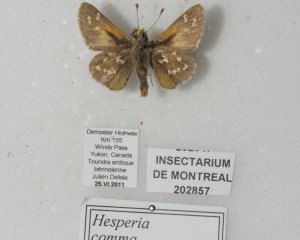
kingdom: Animalia
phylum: Arthropoda
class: Insecta
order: Lepidoptera
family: Hesperiidae
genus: Hesperia
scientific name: Hesperia comma
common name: Common Branded Skipper
